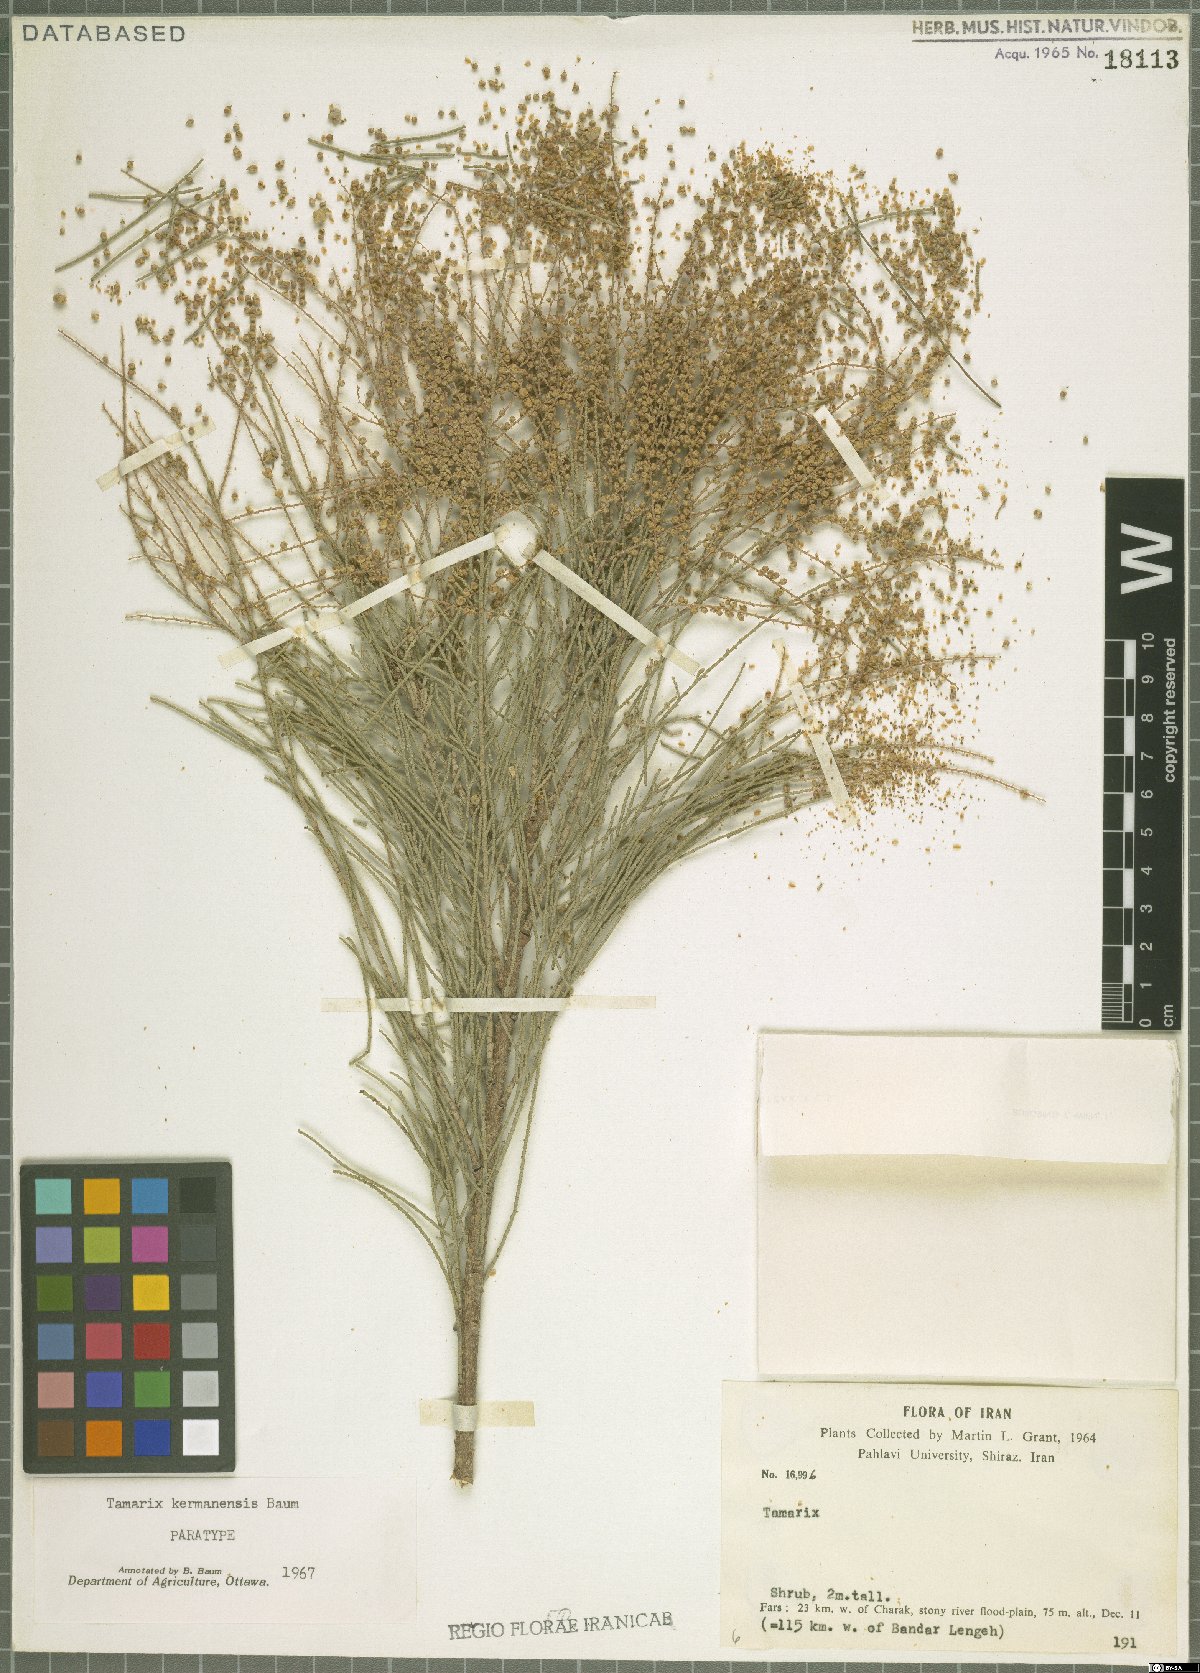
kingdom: Plantae
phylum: Tracheophyta
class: Magnoliopsida
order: Caryophyllales
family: Tamaricaceae
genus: Tamarix
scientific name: Tamarix kermanensis
